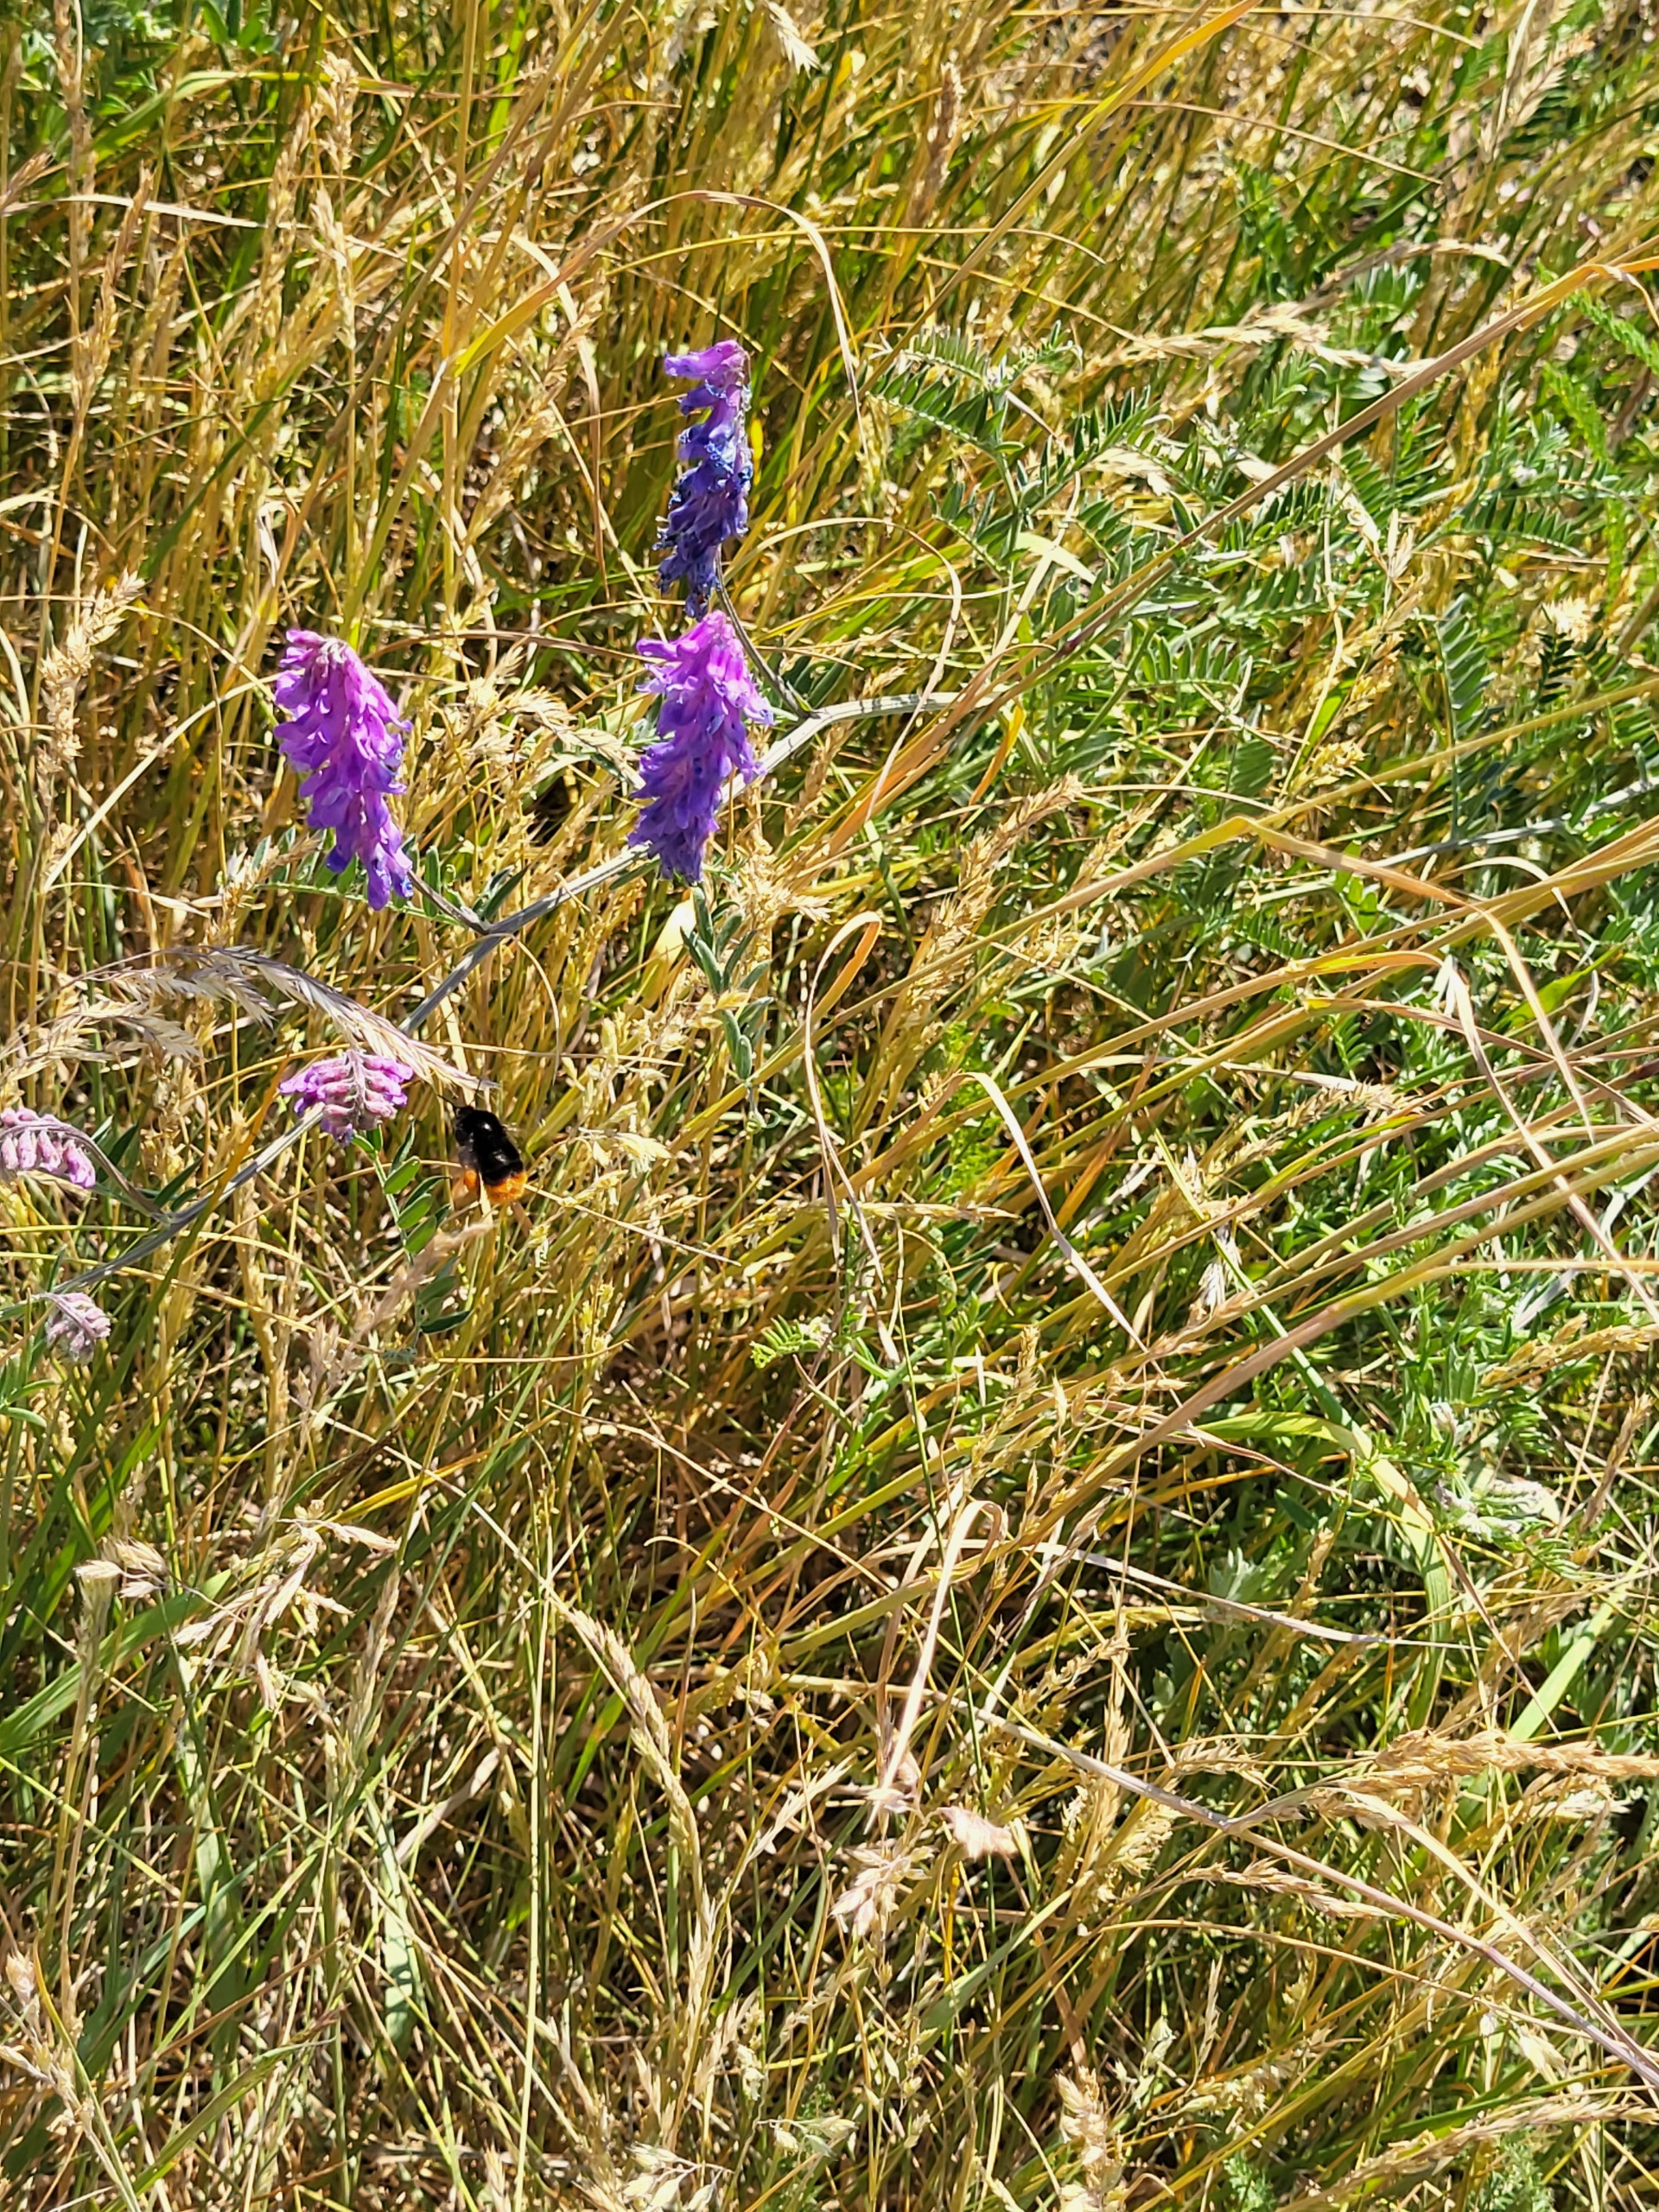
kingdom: Plantae
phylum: Tracheophyta
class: Magnoliopsida
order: Fabales
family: Fabaceae
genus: Vicia
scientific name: Vicia cracca
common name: Muse-vikke
